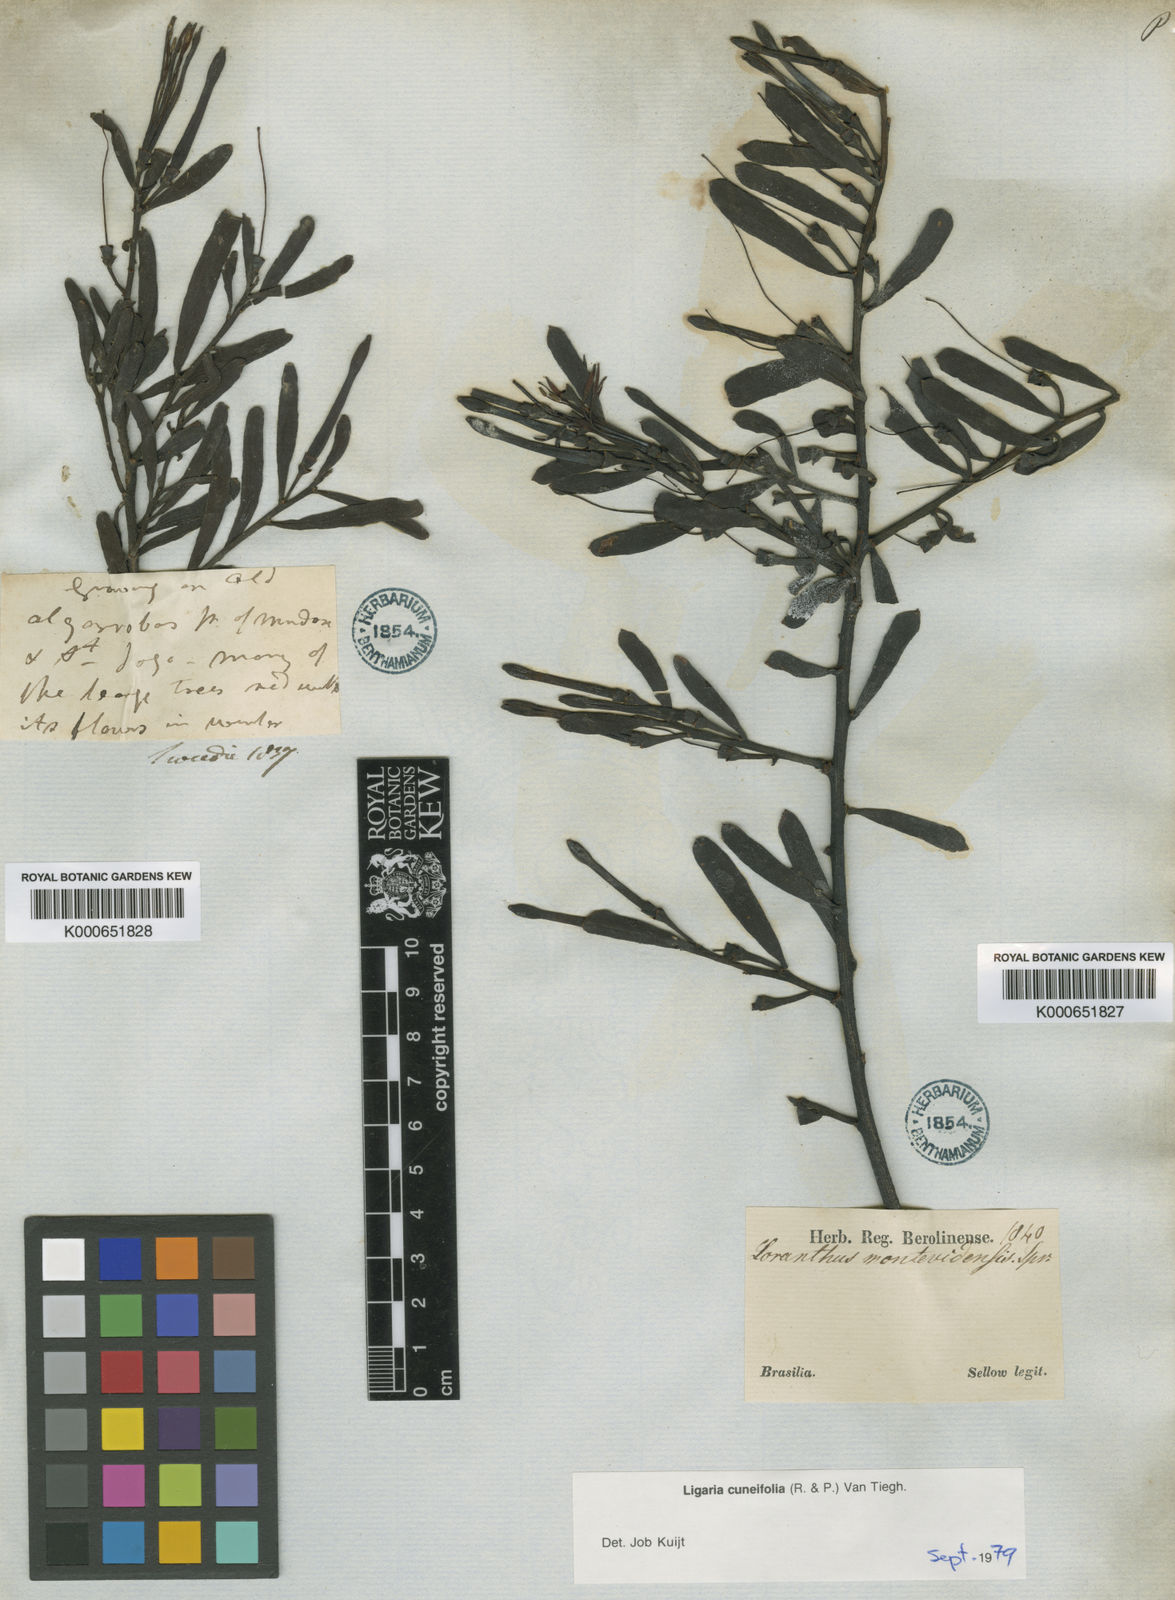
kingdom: Plantae
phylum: Tracheophyta
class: Magnoliopsida
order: Santalales
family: Loranthaceae
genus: Ligaria
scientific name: Ligaria cuneifolia
